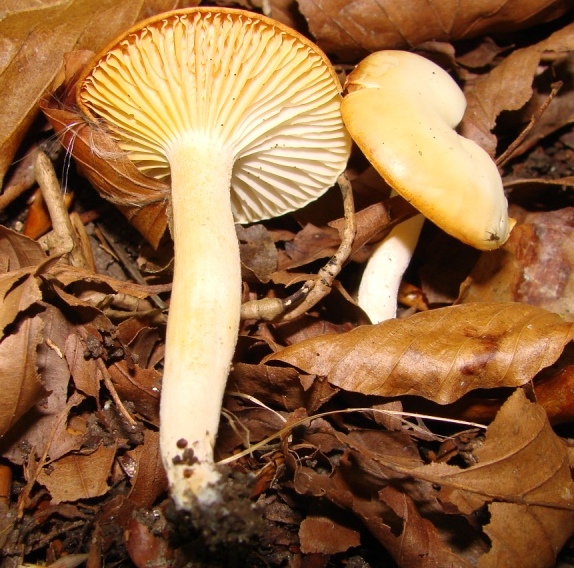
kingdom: Fungi
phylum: Basidiomycota
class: Agaricomycetes
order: Agaricales
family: Hygrophoraceae
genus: Hygrophorus
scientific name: Hygrophorus discoxanthus
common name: ildelugtende sneglehat
